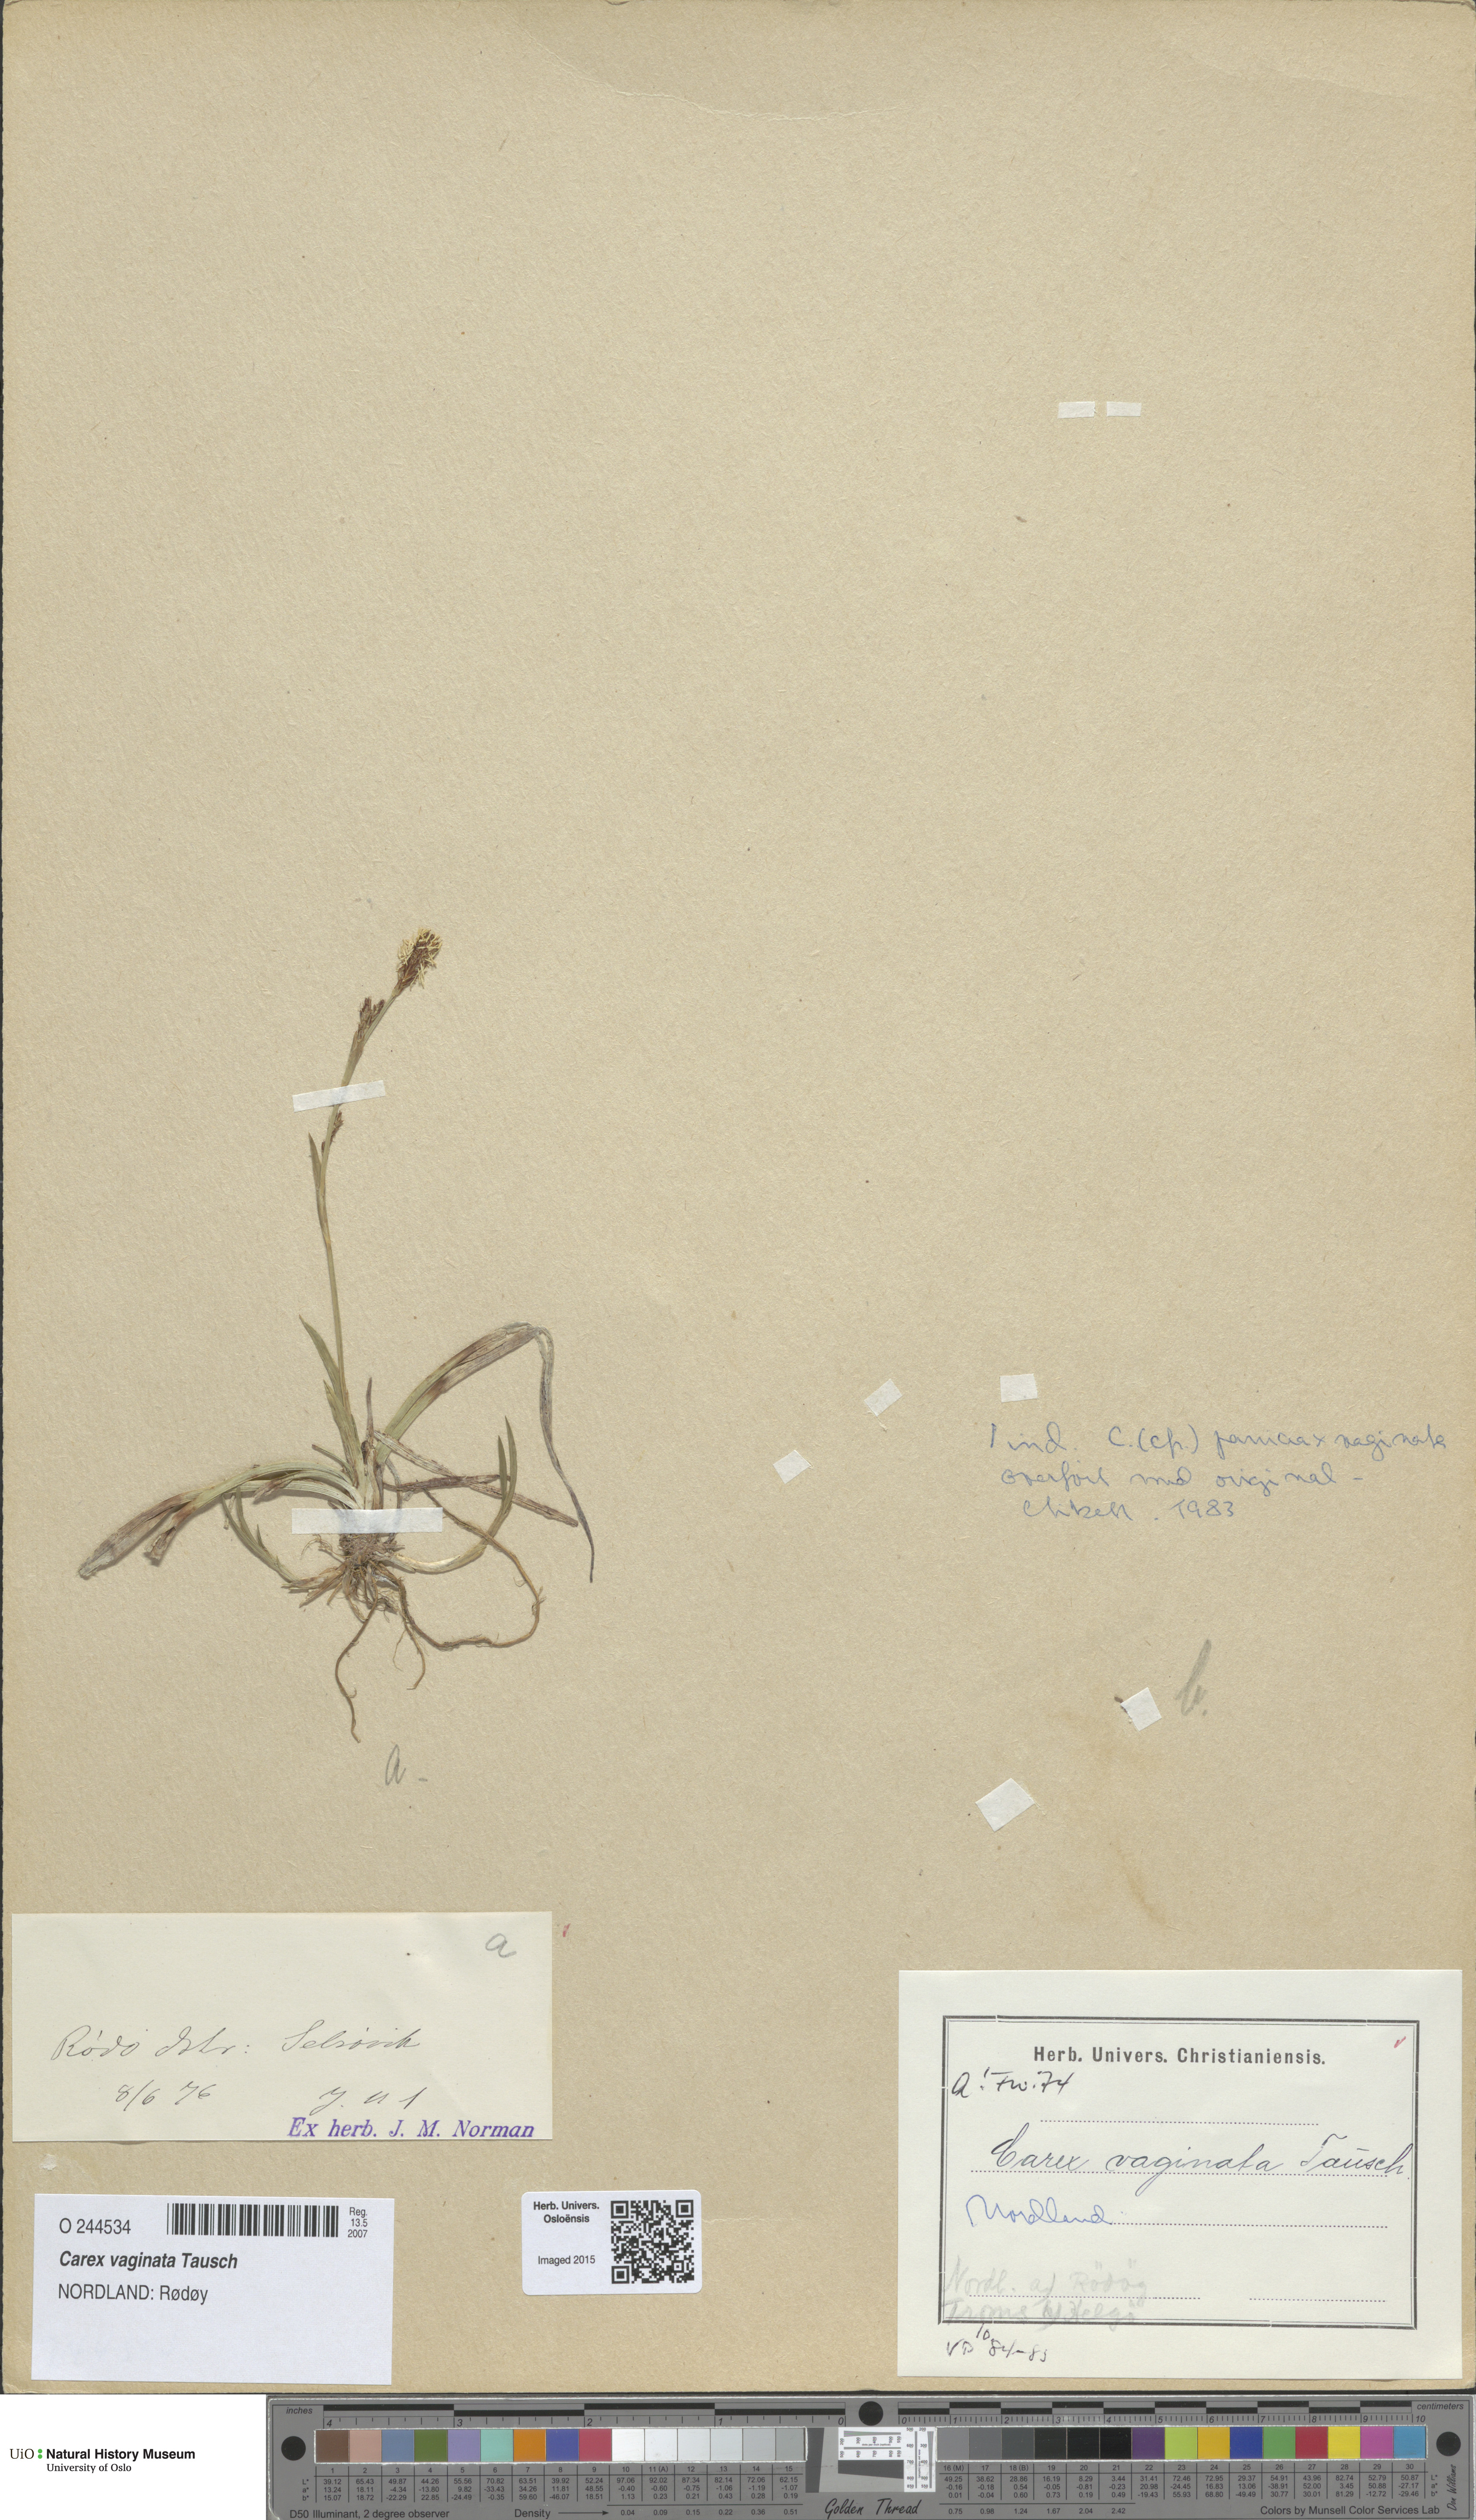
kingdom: Plantae
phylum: Tracheophyta
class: Liliopsida
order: Poales
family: Cyperaceae
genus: Carex
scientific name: Carex vaginata
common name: Sheathed sedge
